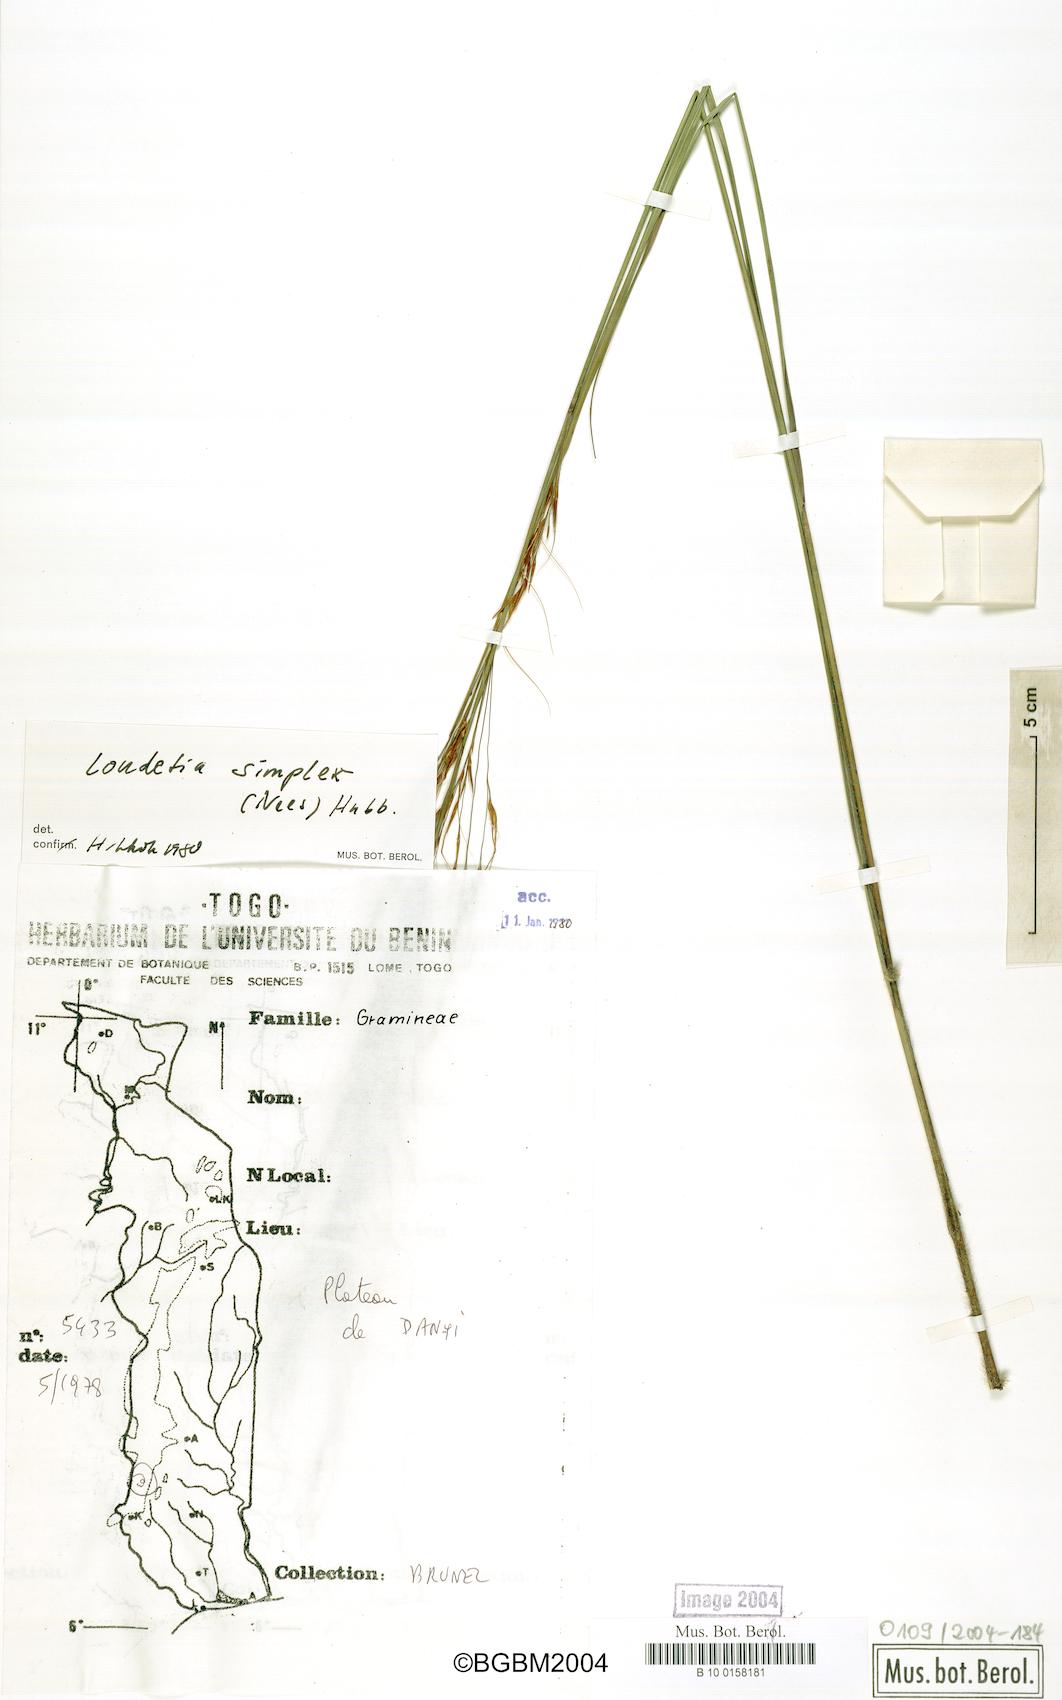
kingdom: Plantae
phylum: Tracheophyta
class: Liliopsida
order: Poales
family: Poaceae
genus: Loudetia
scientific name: Loudetia simplex
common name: Common russet grass
